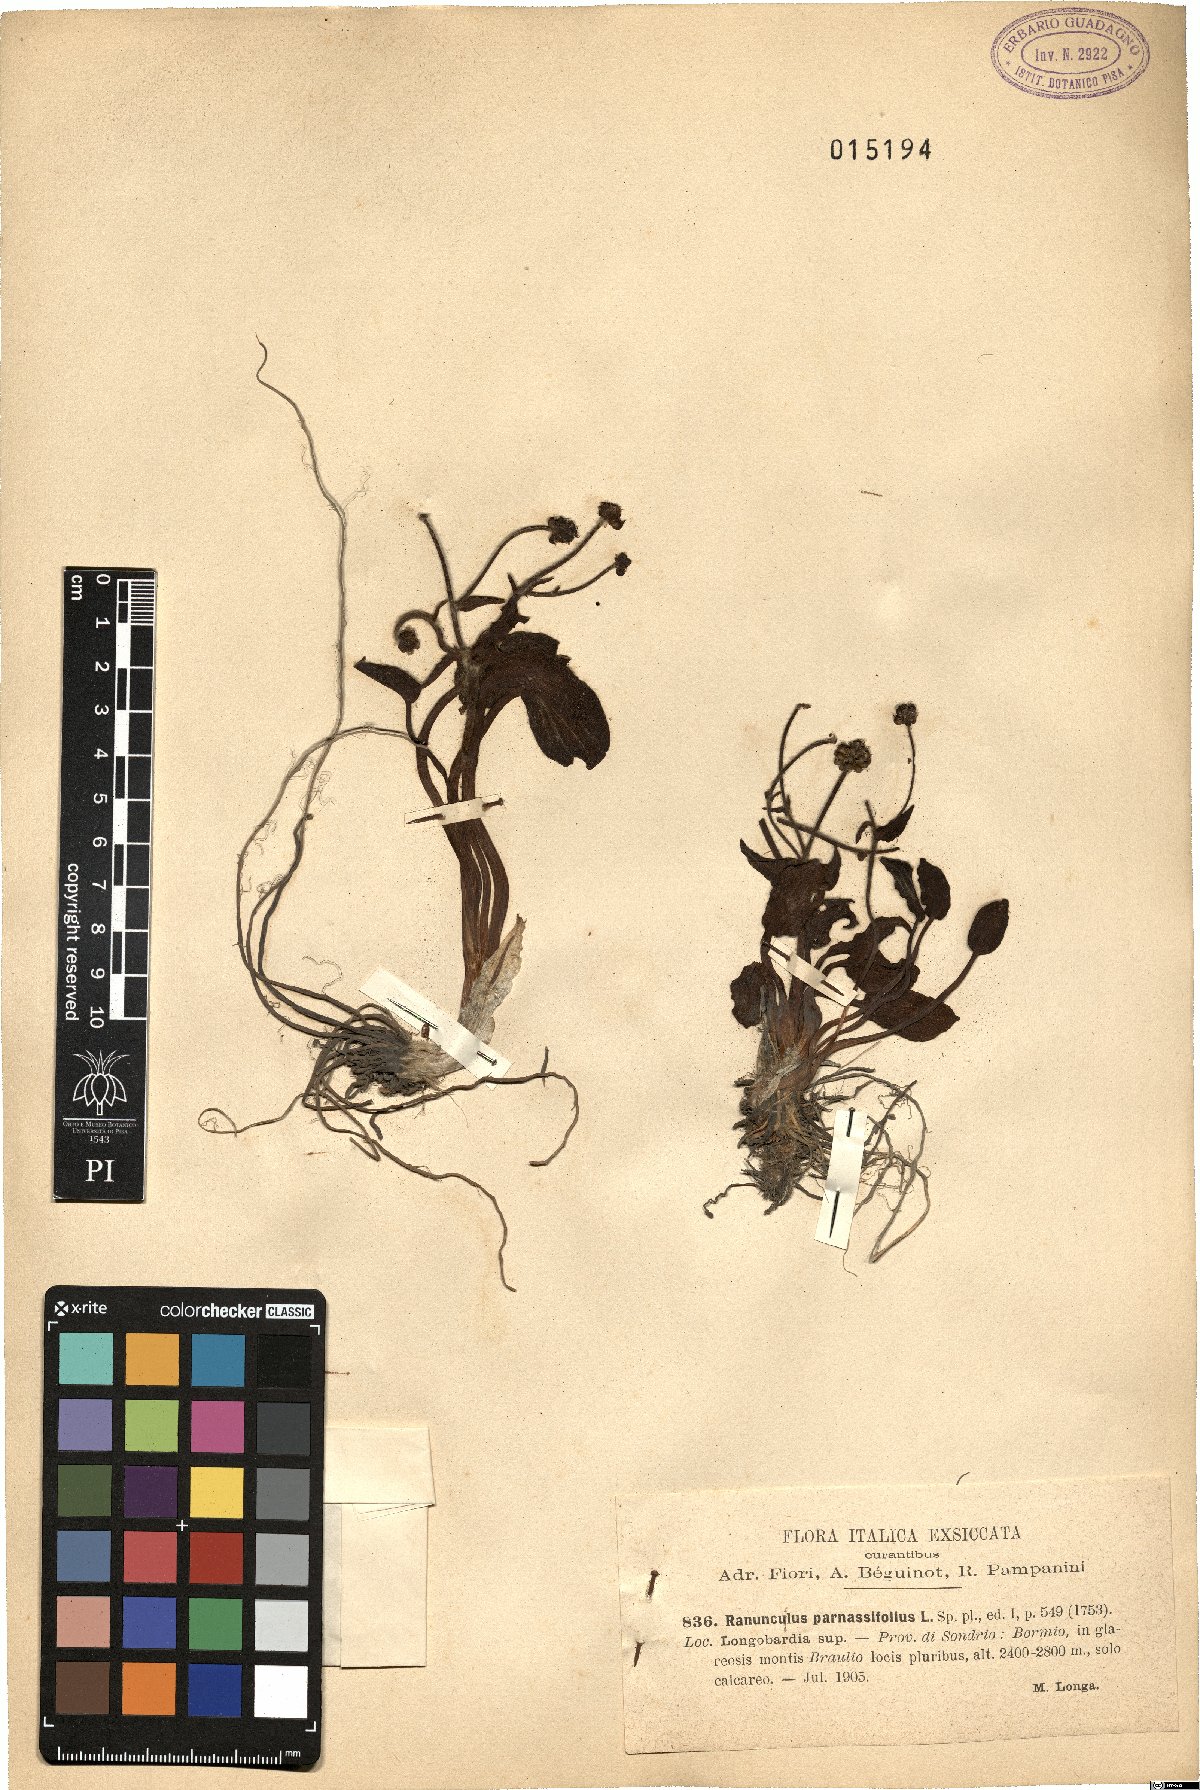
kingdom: Plantae
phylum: Tracheophyta
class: Magnoliopsida
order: Ranunculales
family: Ranunculaceae
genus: Ranunculus
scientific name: Ranunculus parnassiifolius
